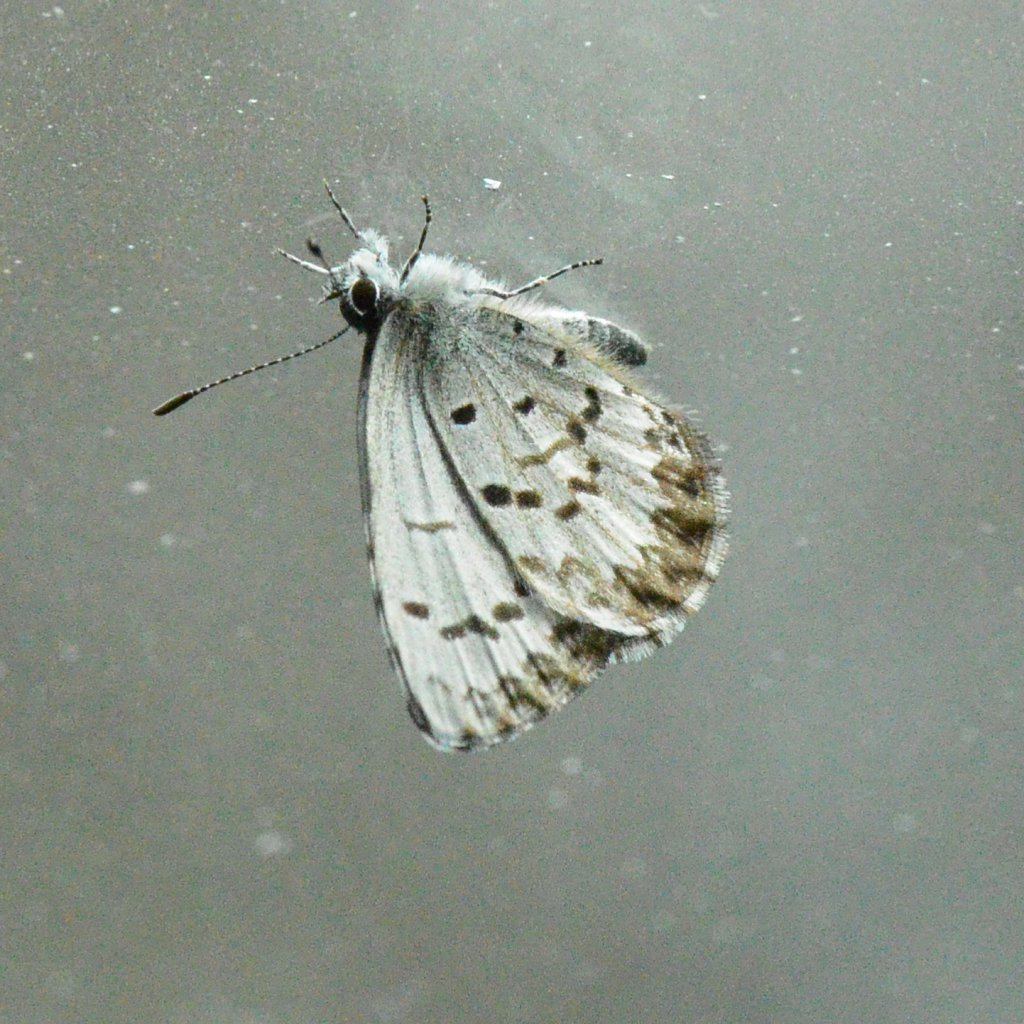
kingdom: Animalia
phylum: Arthropoda
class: Insecta
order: Lepidoptera
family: Lycaenidae
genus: Celastrina
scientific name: Celastrina lucia
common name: Northern Spring Azure
